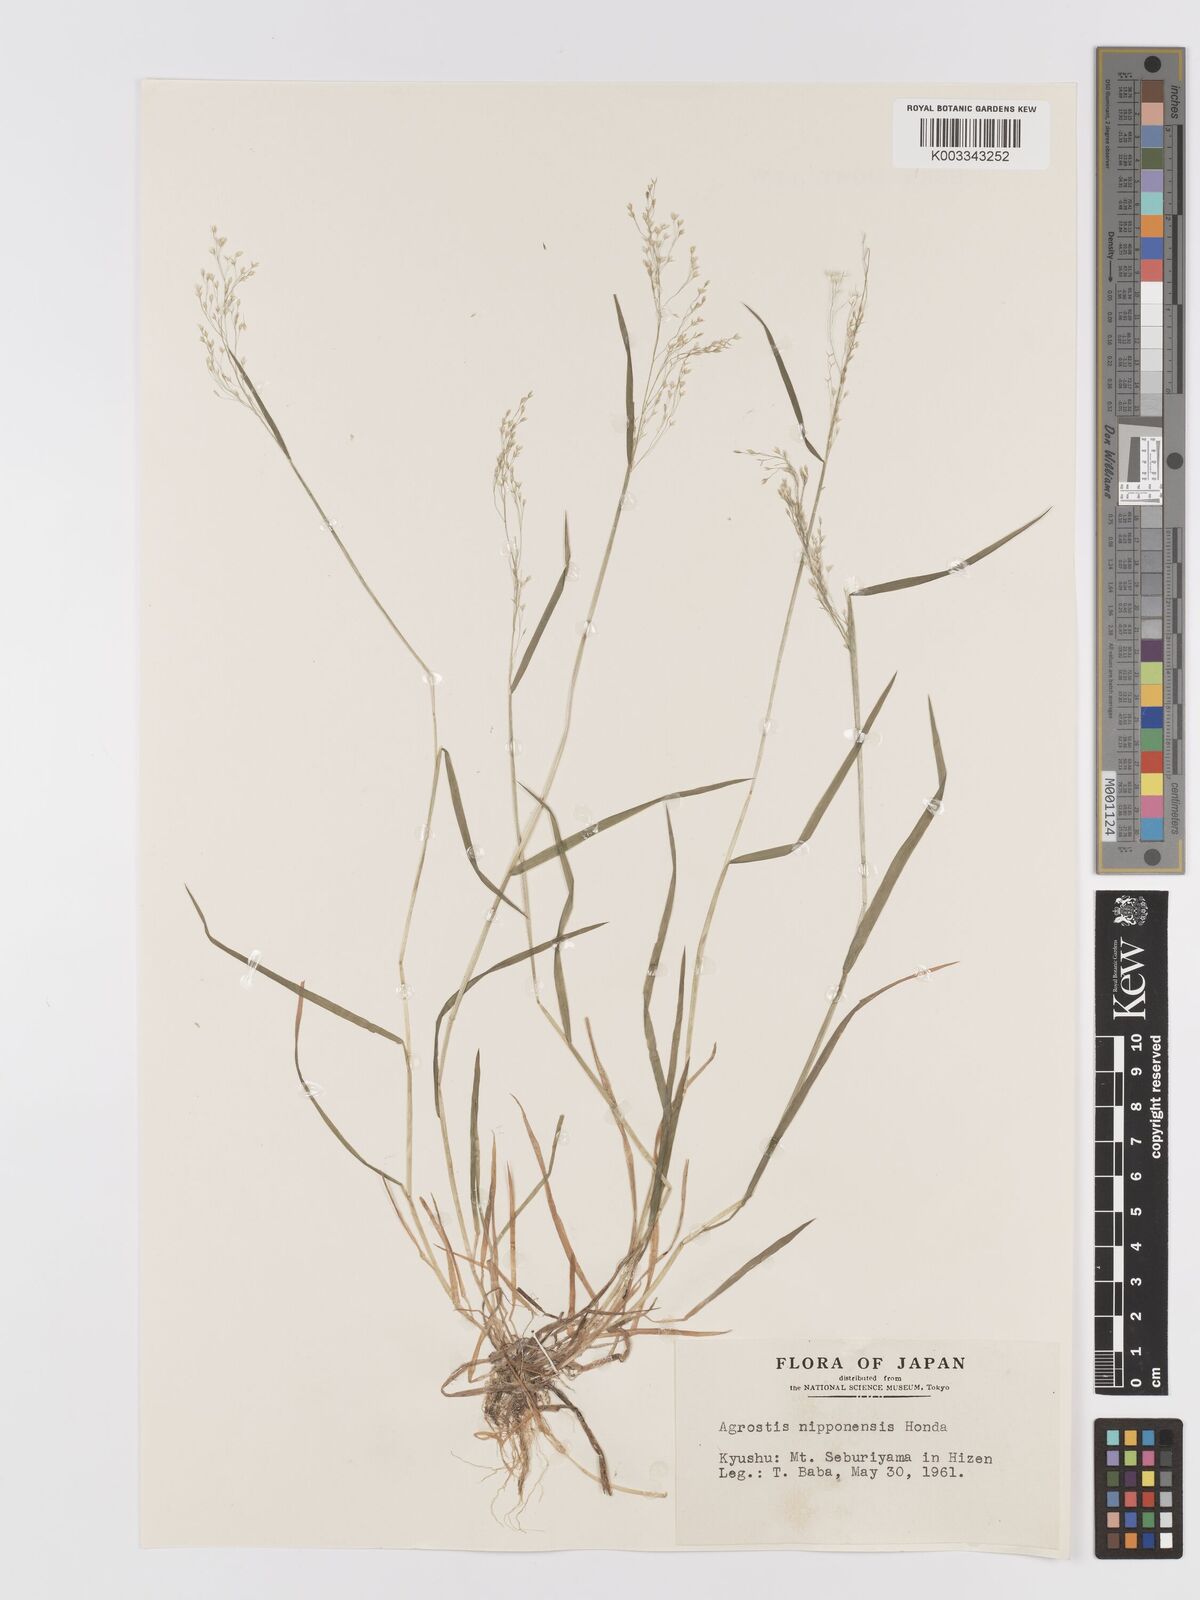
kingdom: Plantae
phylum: Tracheophyta
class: Liliopsida
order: Poales
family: Poaceae
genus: Agrostis
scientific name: Agrostis valvata
